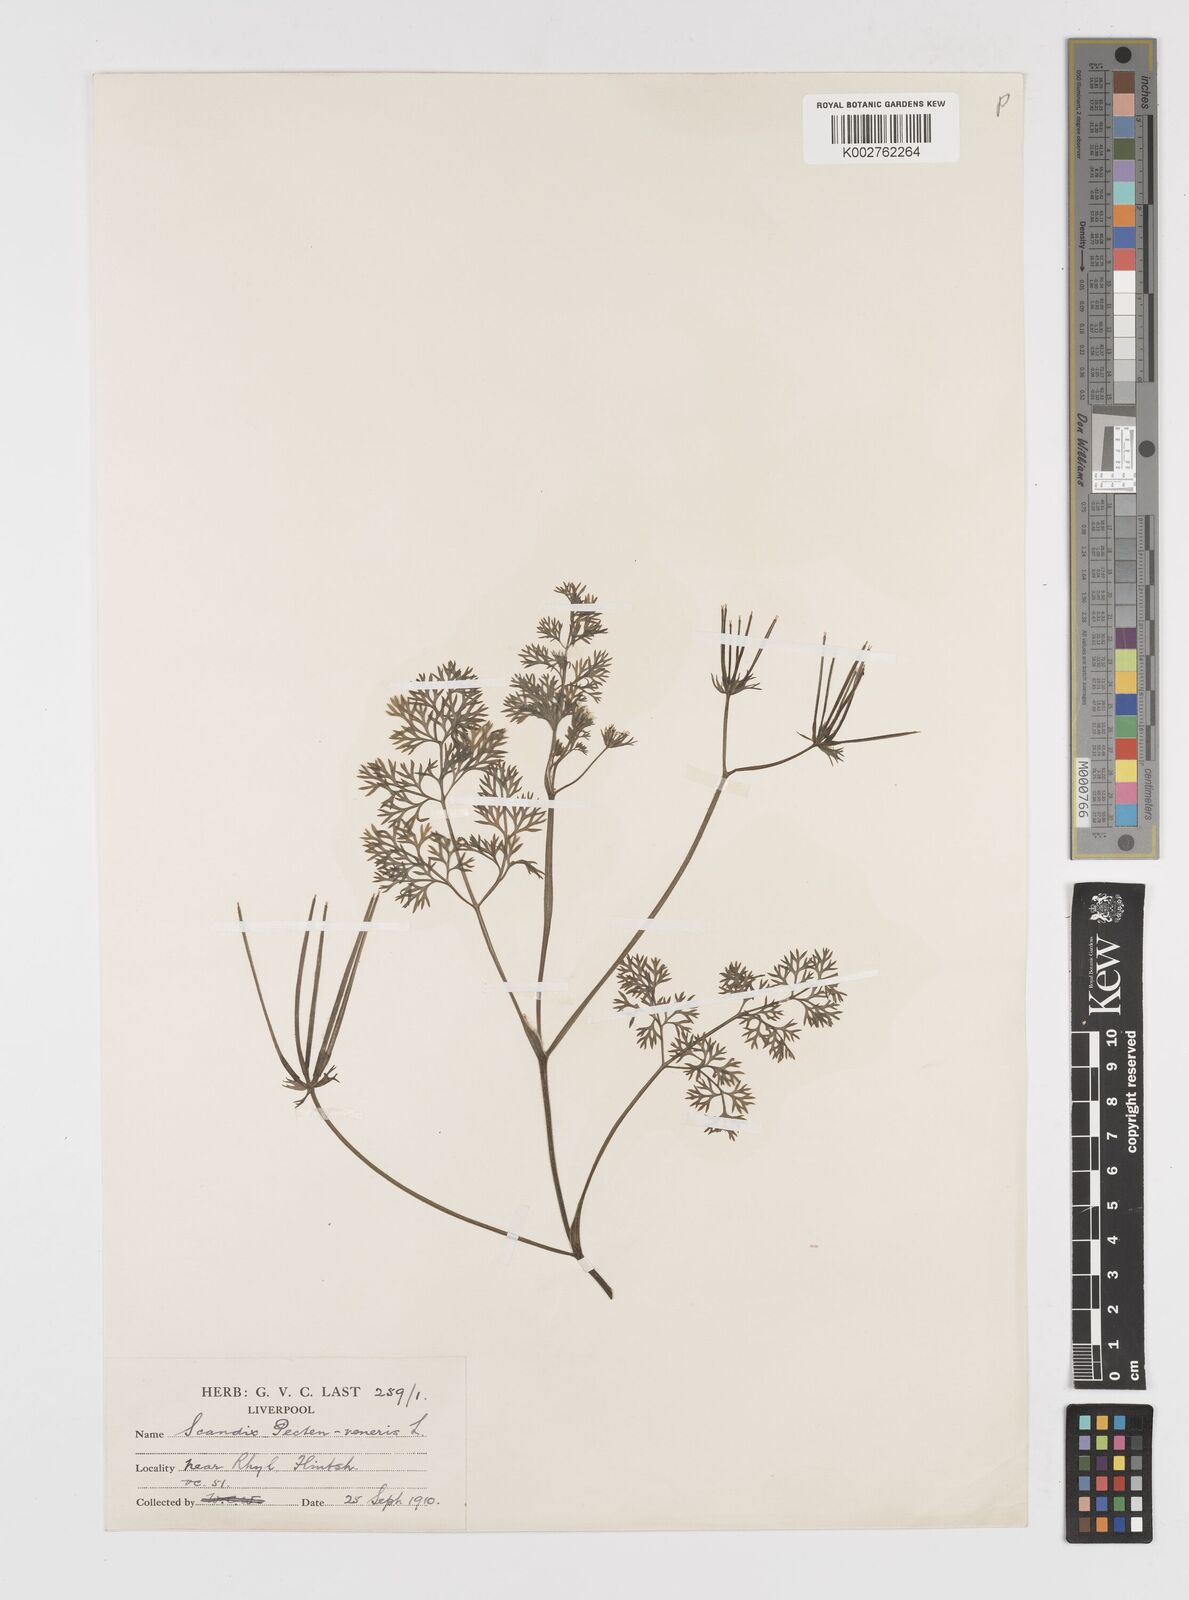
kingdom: Plantae
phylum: Tracheophyta
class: Magnoliopsida
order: Apiales
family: Apiaceae
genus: Scandix
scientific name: Scandix pecten-veneris
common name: Shepherd's-needle
